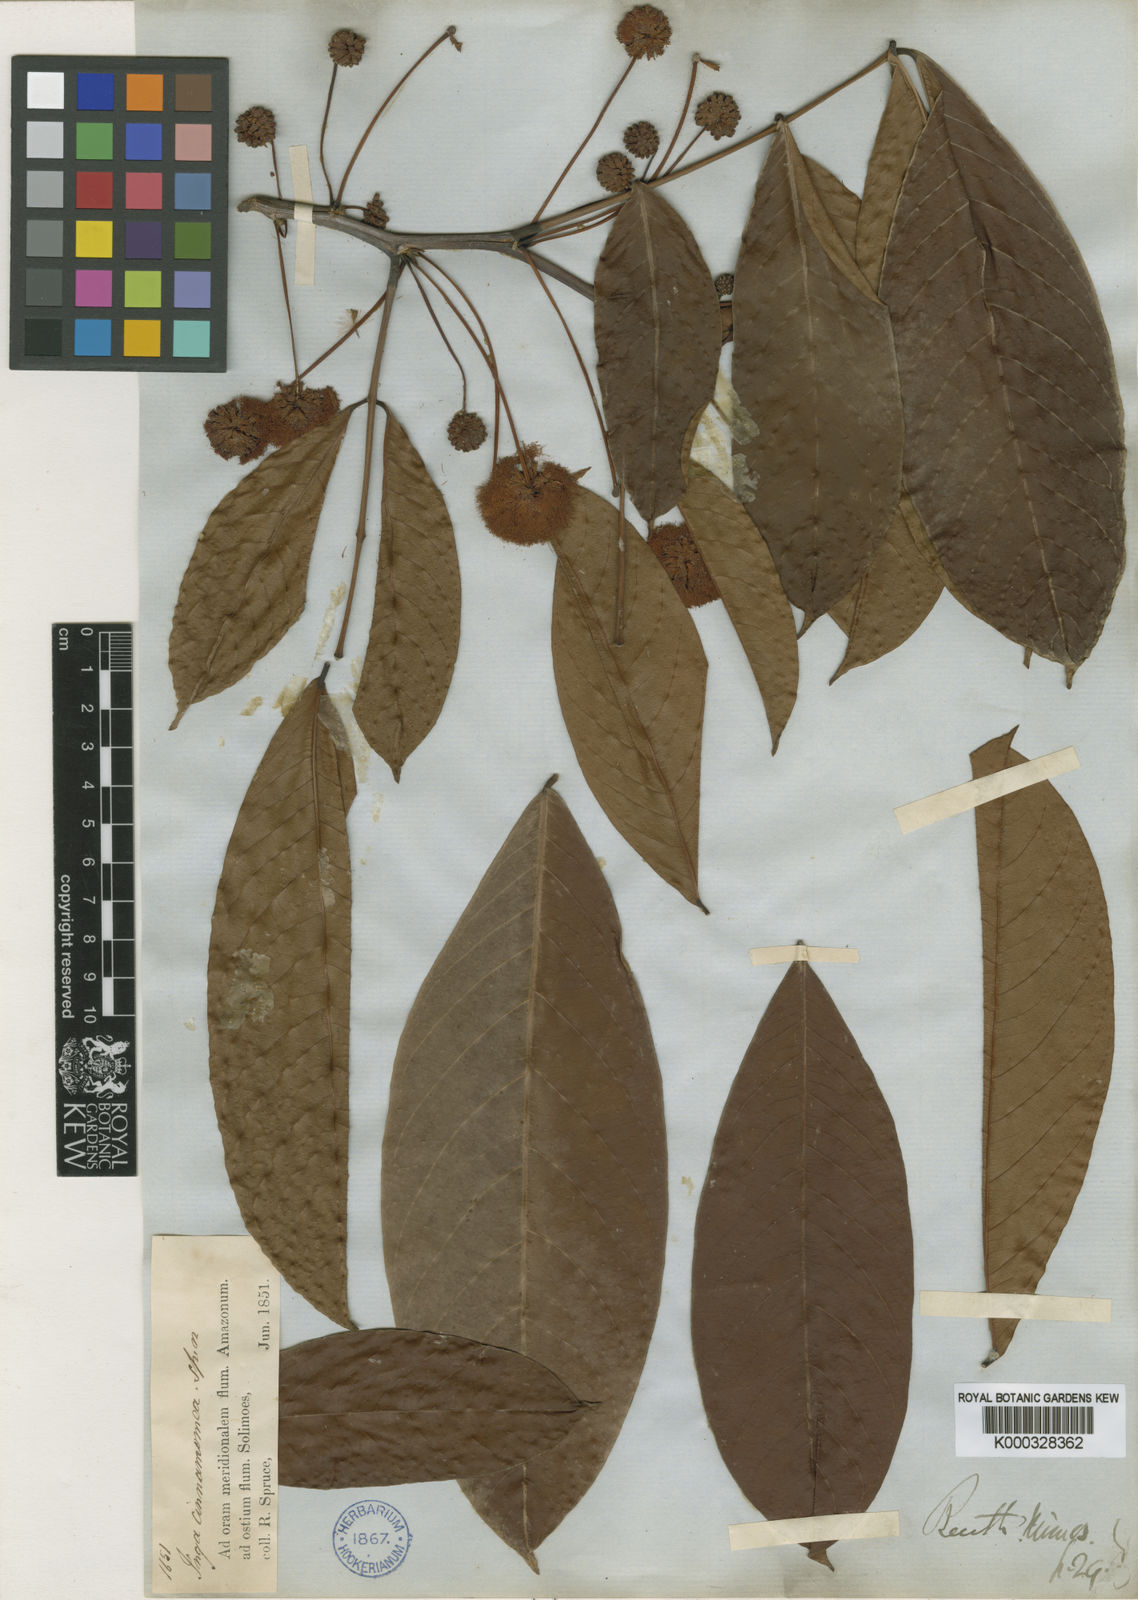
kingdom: Plantae
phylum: Tracheophyta
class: Magnoliopsida
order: Fabales
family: Fabaceae
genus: Inga
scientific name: Inga cinnamomea
